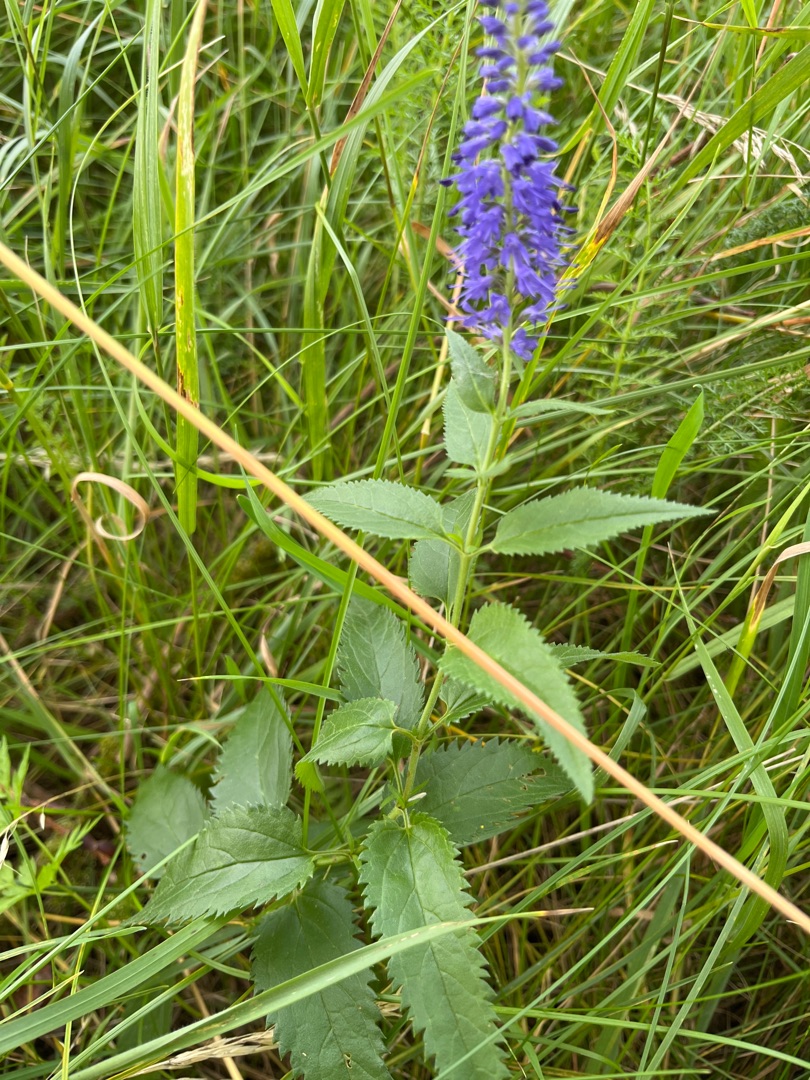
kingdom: Plantae
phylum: Tracheophyta
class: Magnoliopsida
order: Lamiales
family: Plantaginaceae
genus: Veronica
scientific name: Veronica longifolia
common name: Langbladet ærenpris
